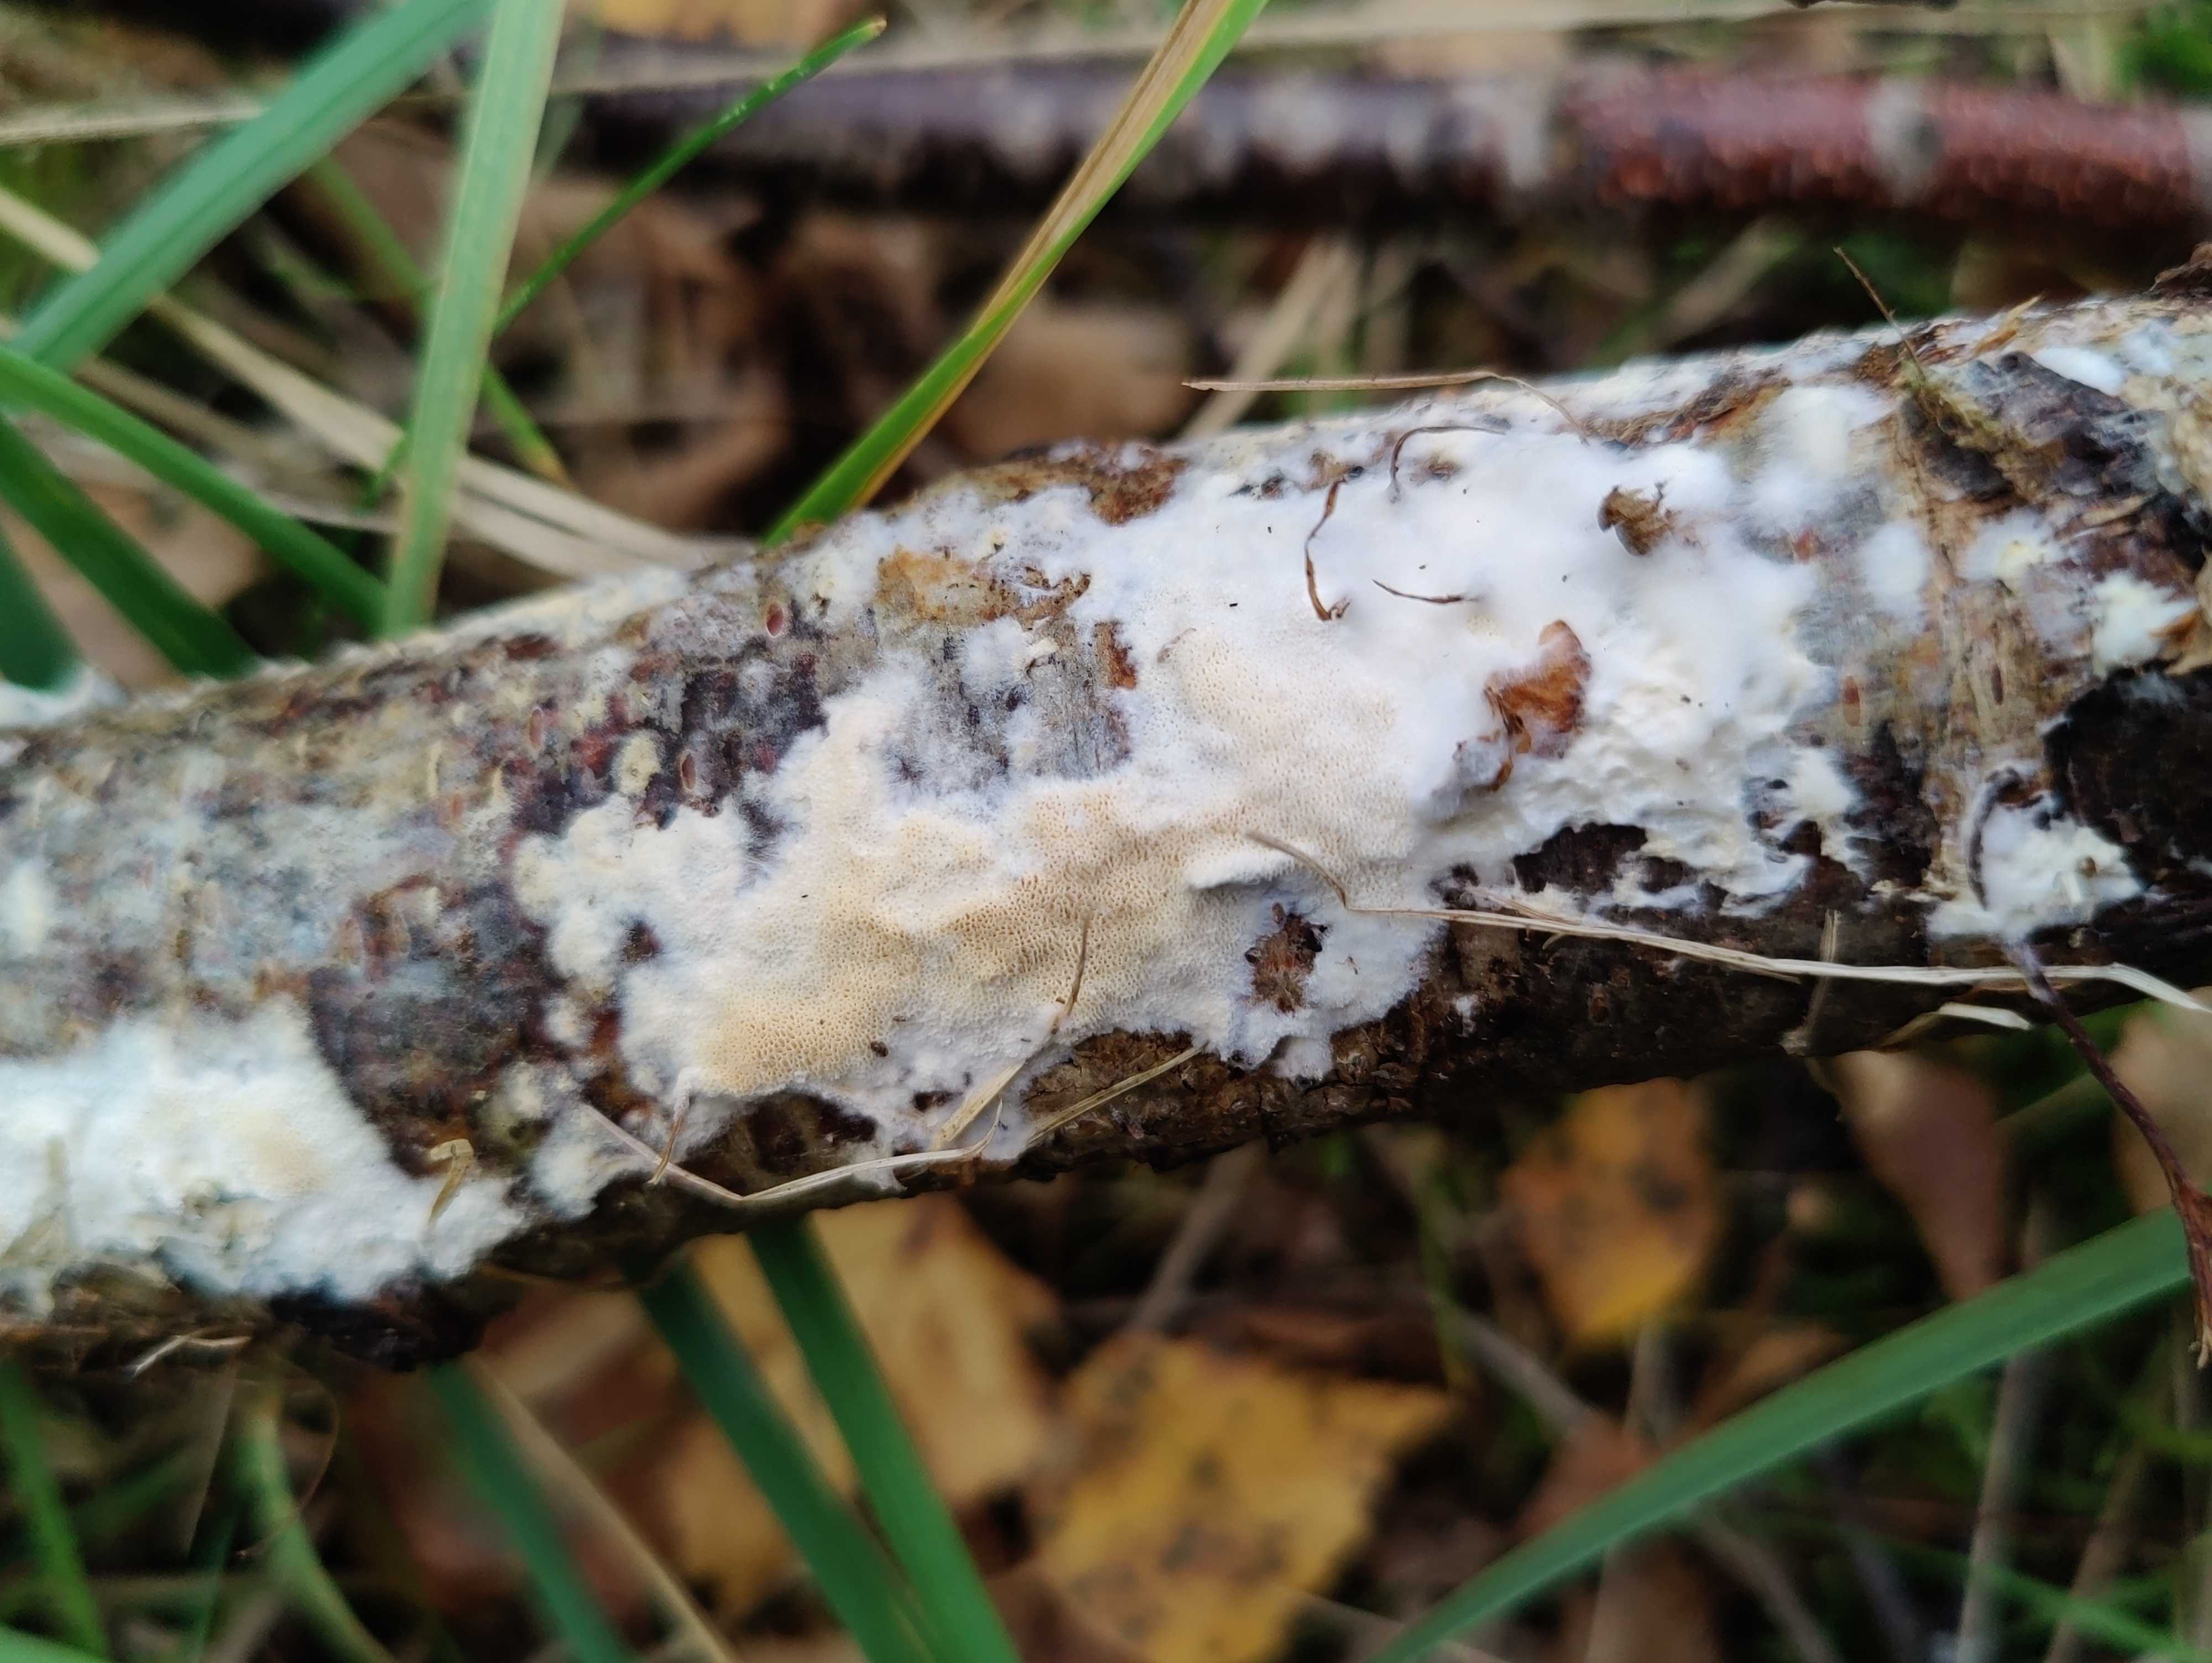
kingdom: Fungi
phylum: Basidiomycota
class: Agaricomycetes
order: Hymenochaetales
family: Schizoporaceae
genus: Xylodon
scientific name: Xylodon subtropicus
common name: labyrint-tandsvamp
